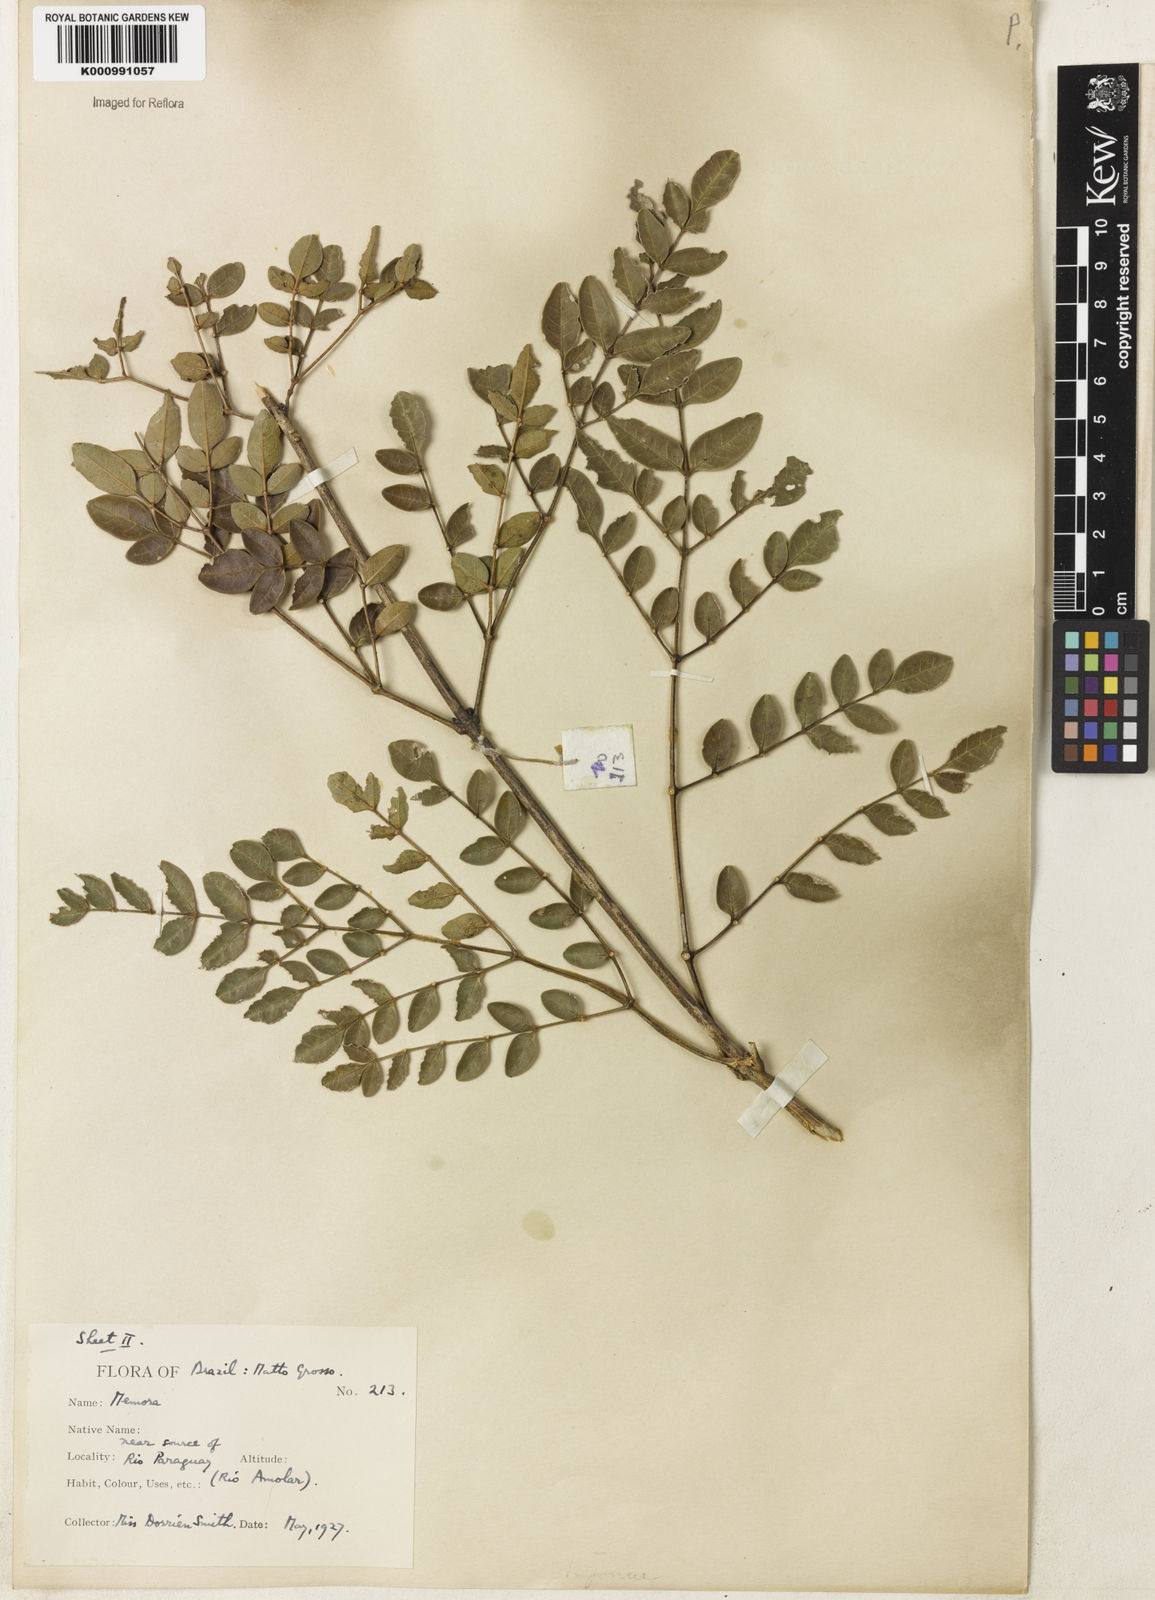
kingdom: Plantae
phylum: Tracheophyta
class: Magnoliopsida
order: Lamiales
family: Bignoniaceae
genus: Adenocalymma
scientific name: Adenocalymma campicola
